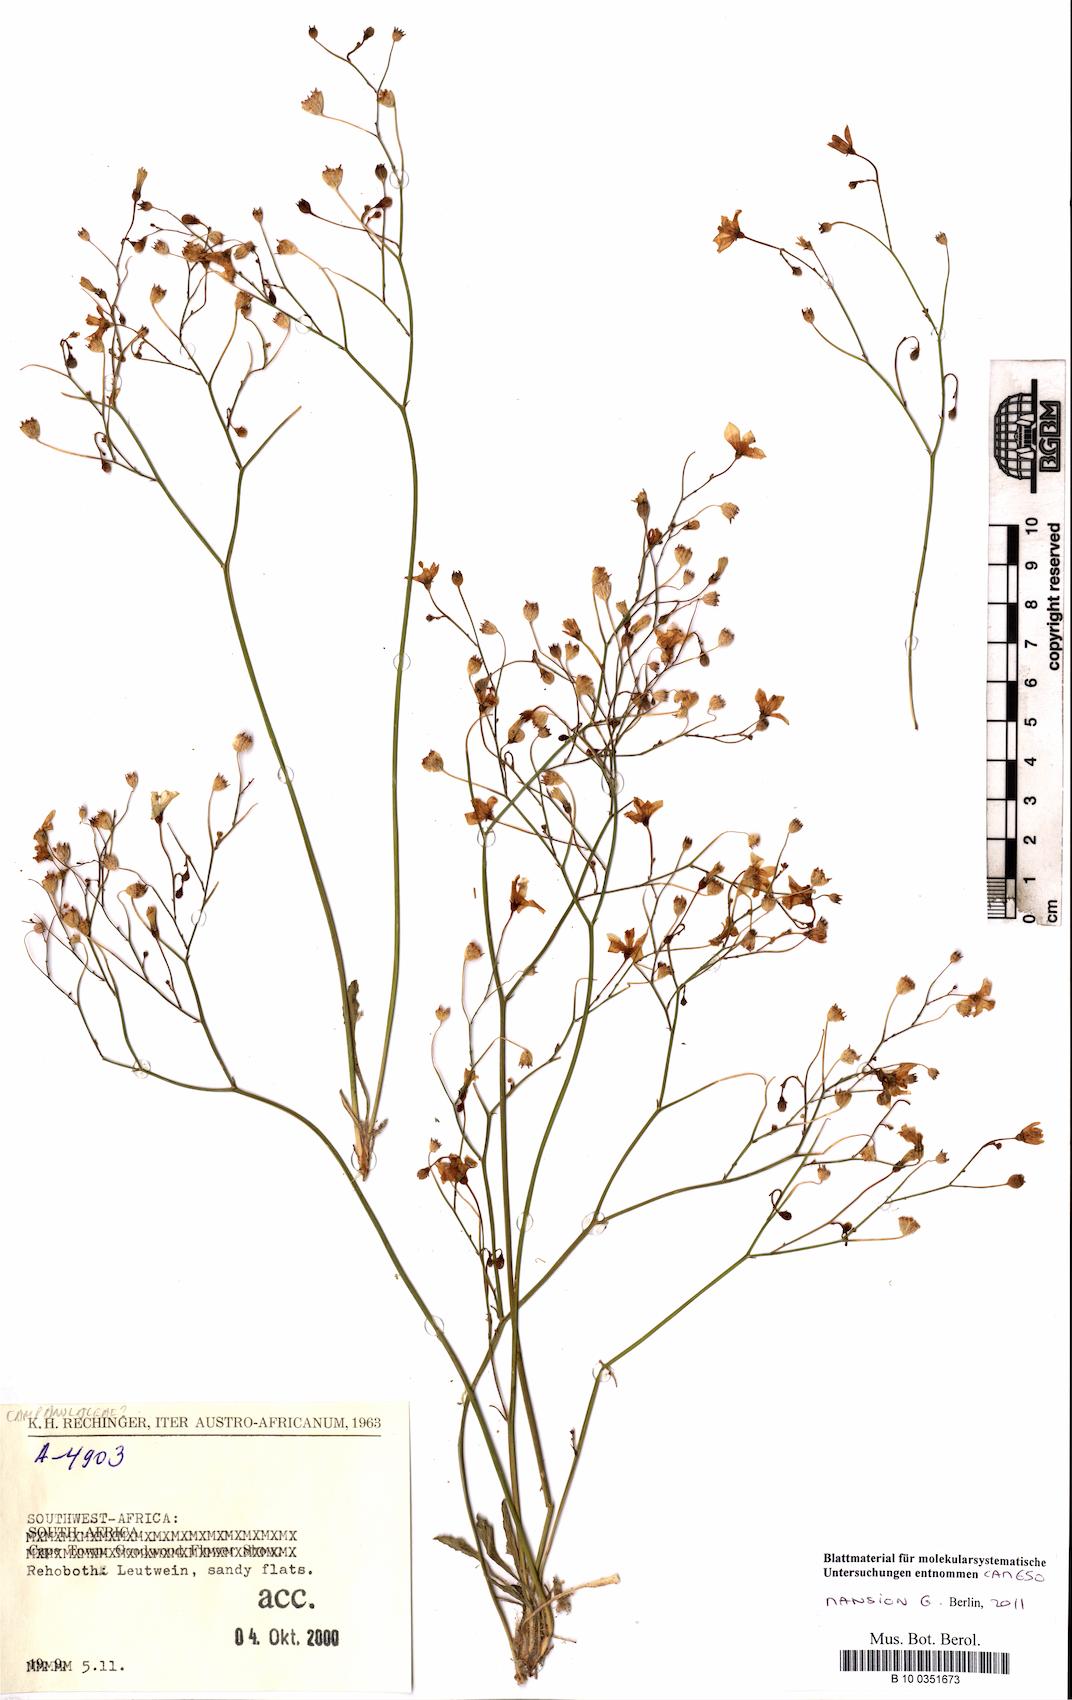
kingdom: Plantae
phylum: Tracheophyta
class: Magnoliopsida
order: Asterales
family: Campanulaceae
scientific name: Campanulaceae
